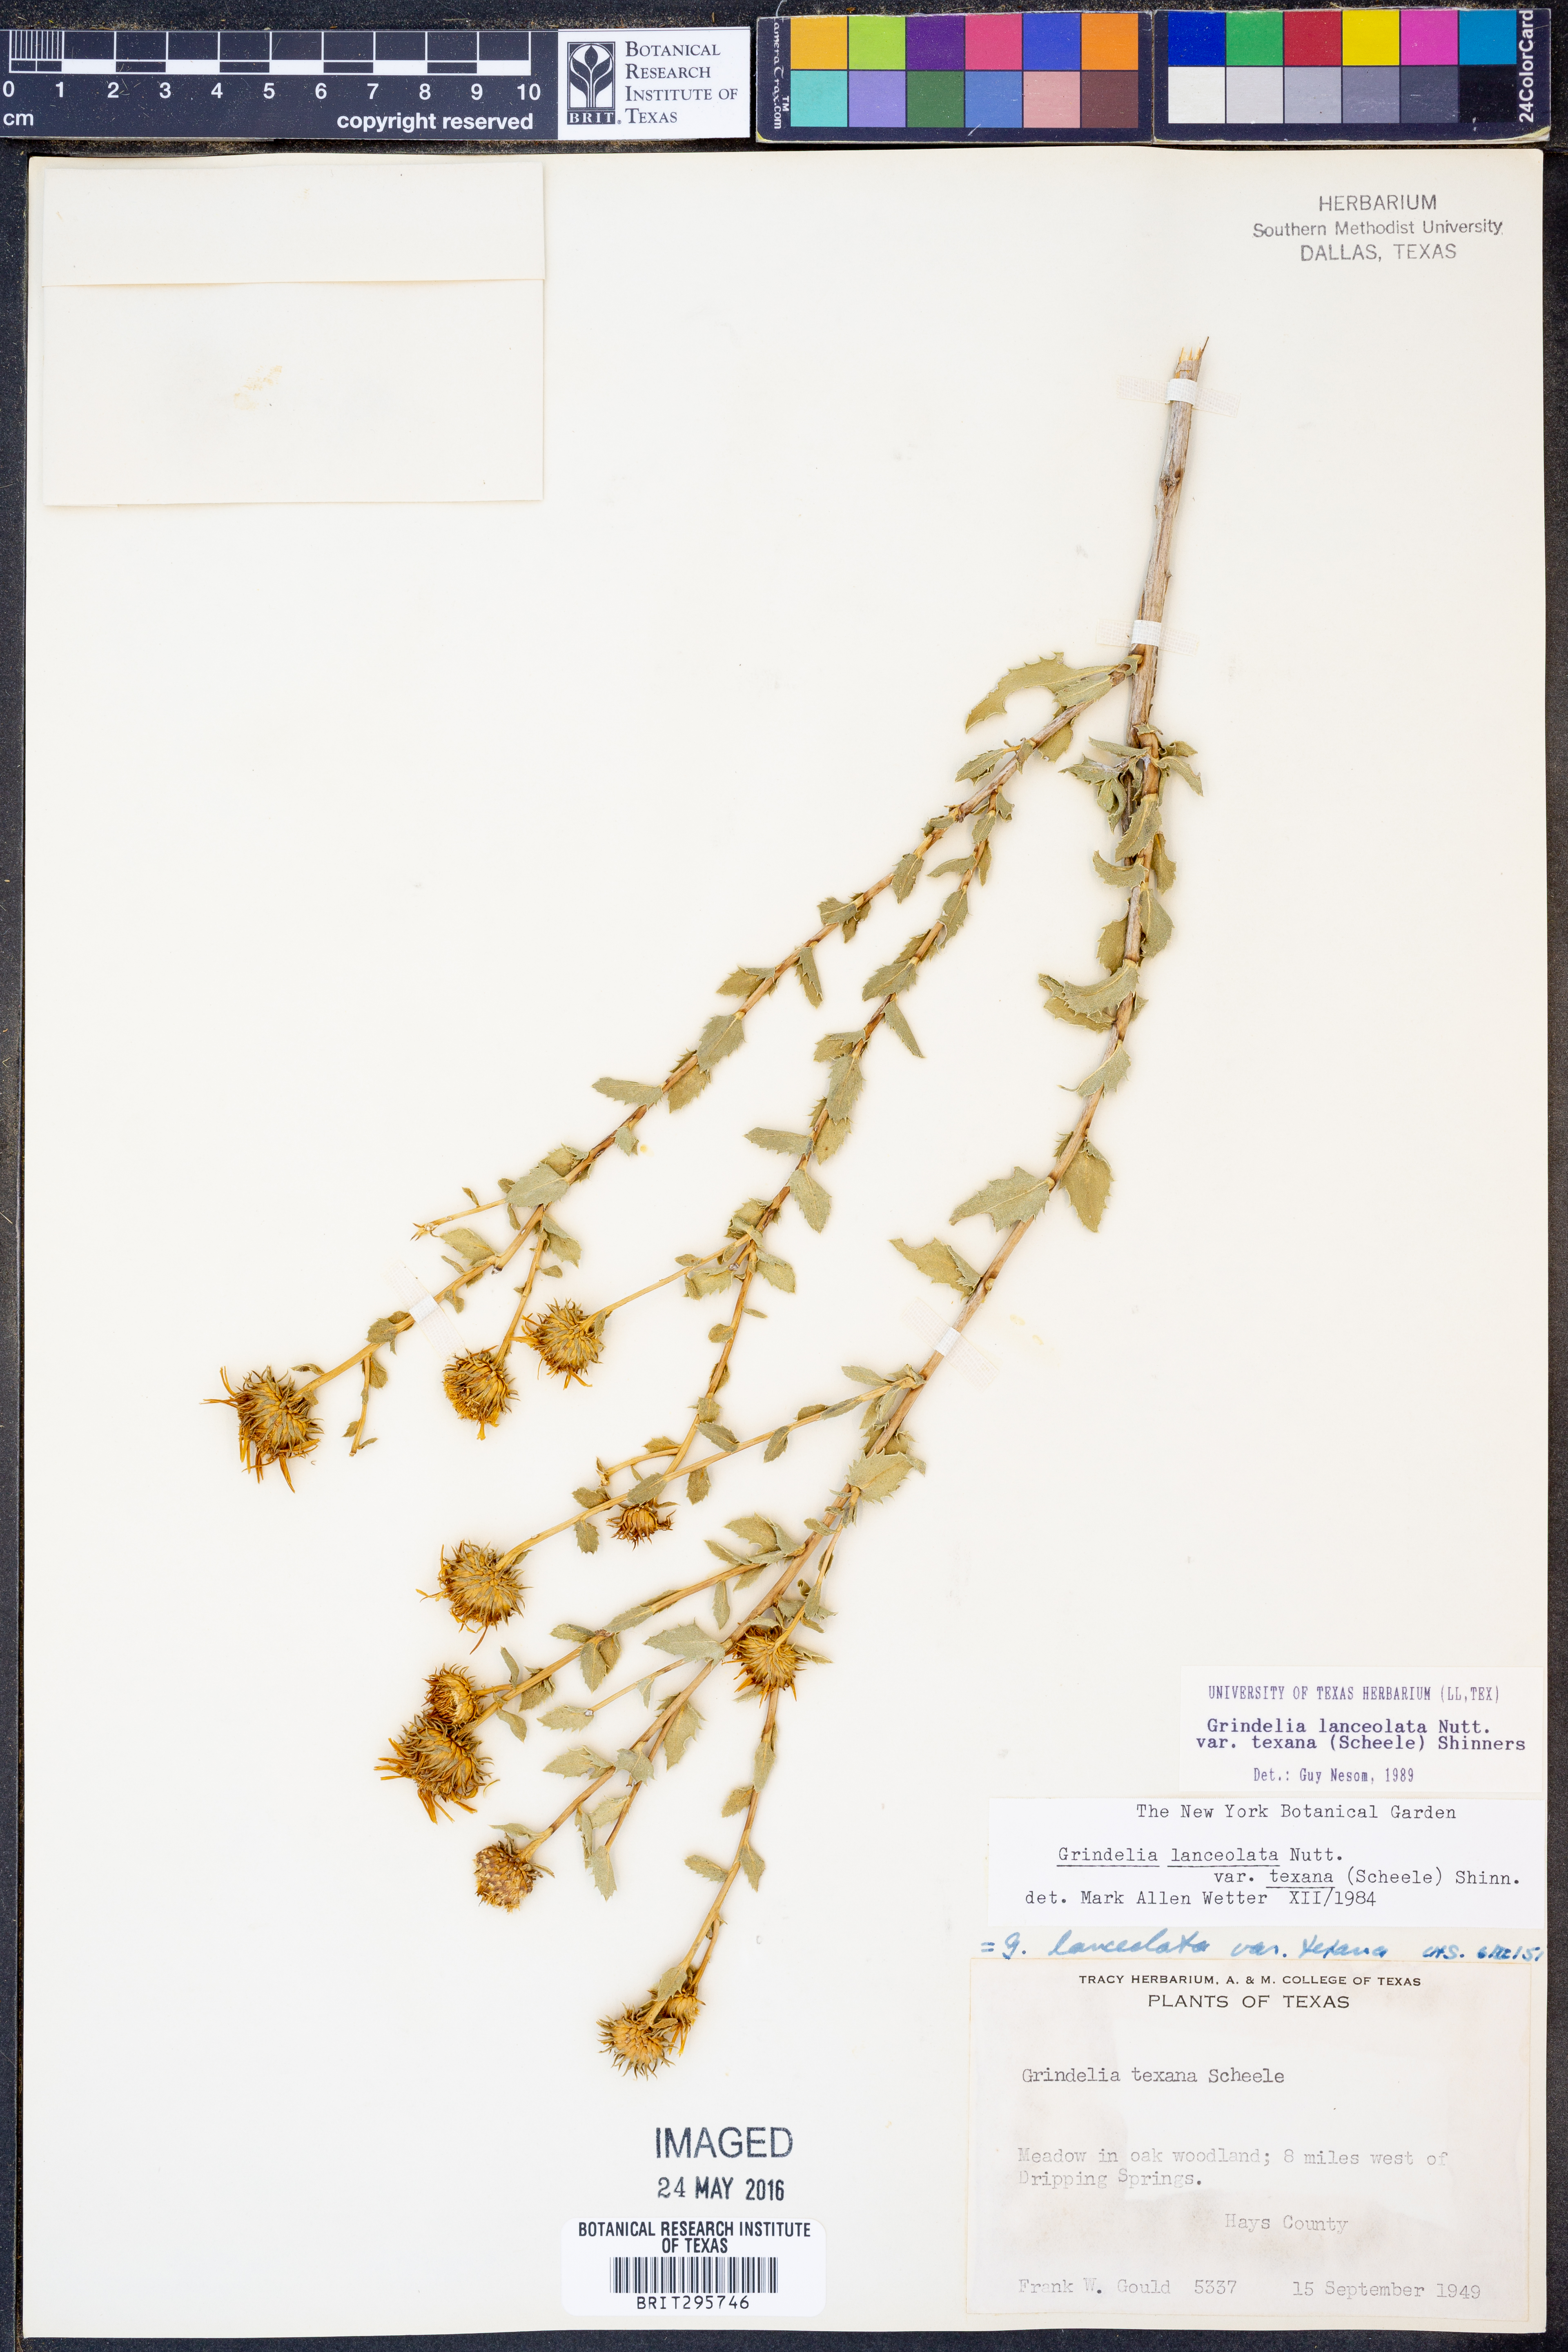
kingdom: Plantae
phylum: Tracheophyta
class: Magnoliopsida
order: Asterales
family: Asteraceae
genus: Grindelia
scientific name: Grindelia texana
